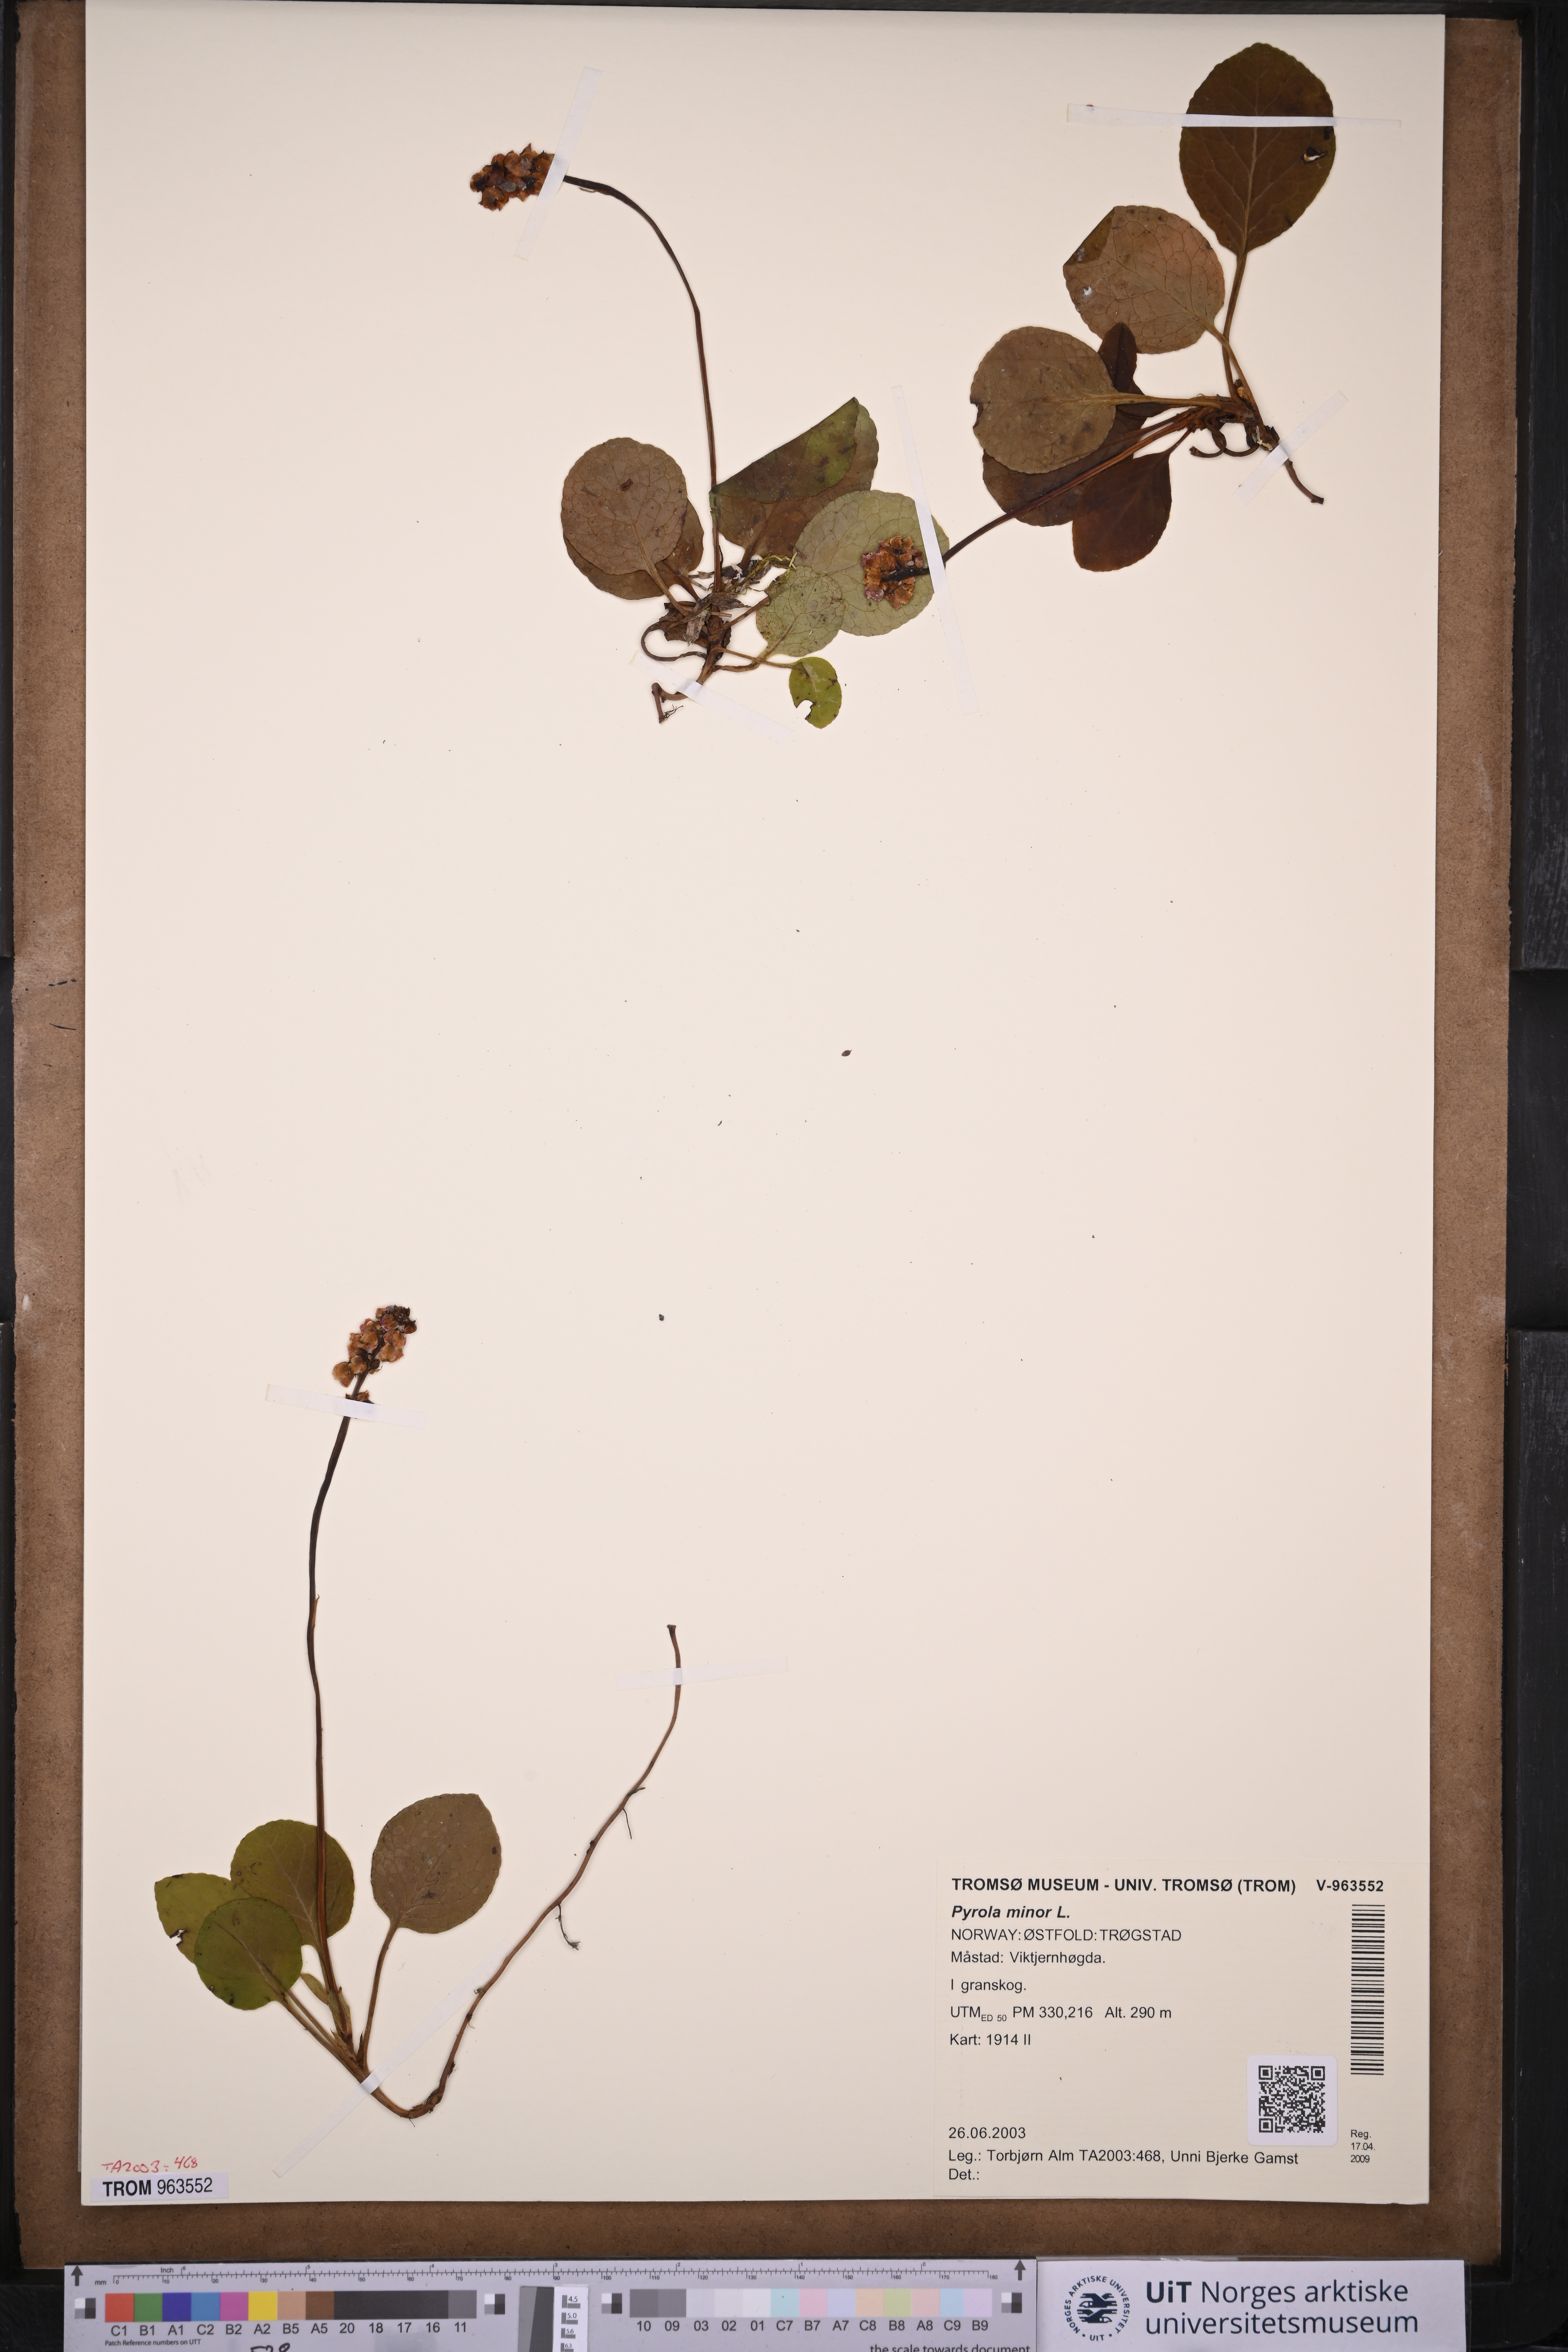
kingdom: Plantae
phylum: Tracheophyta
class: Magnoliopsida
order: Ericales
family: Ericaceae
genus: Pyrola
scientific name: Pyrola minor
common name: Common wintergreen
